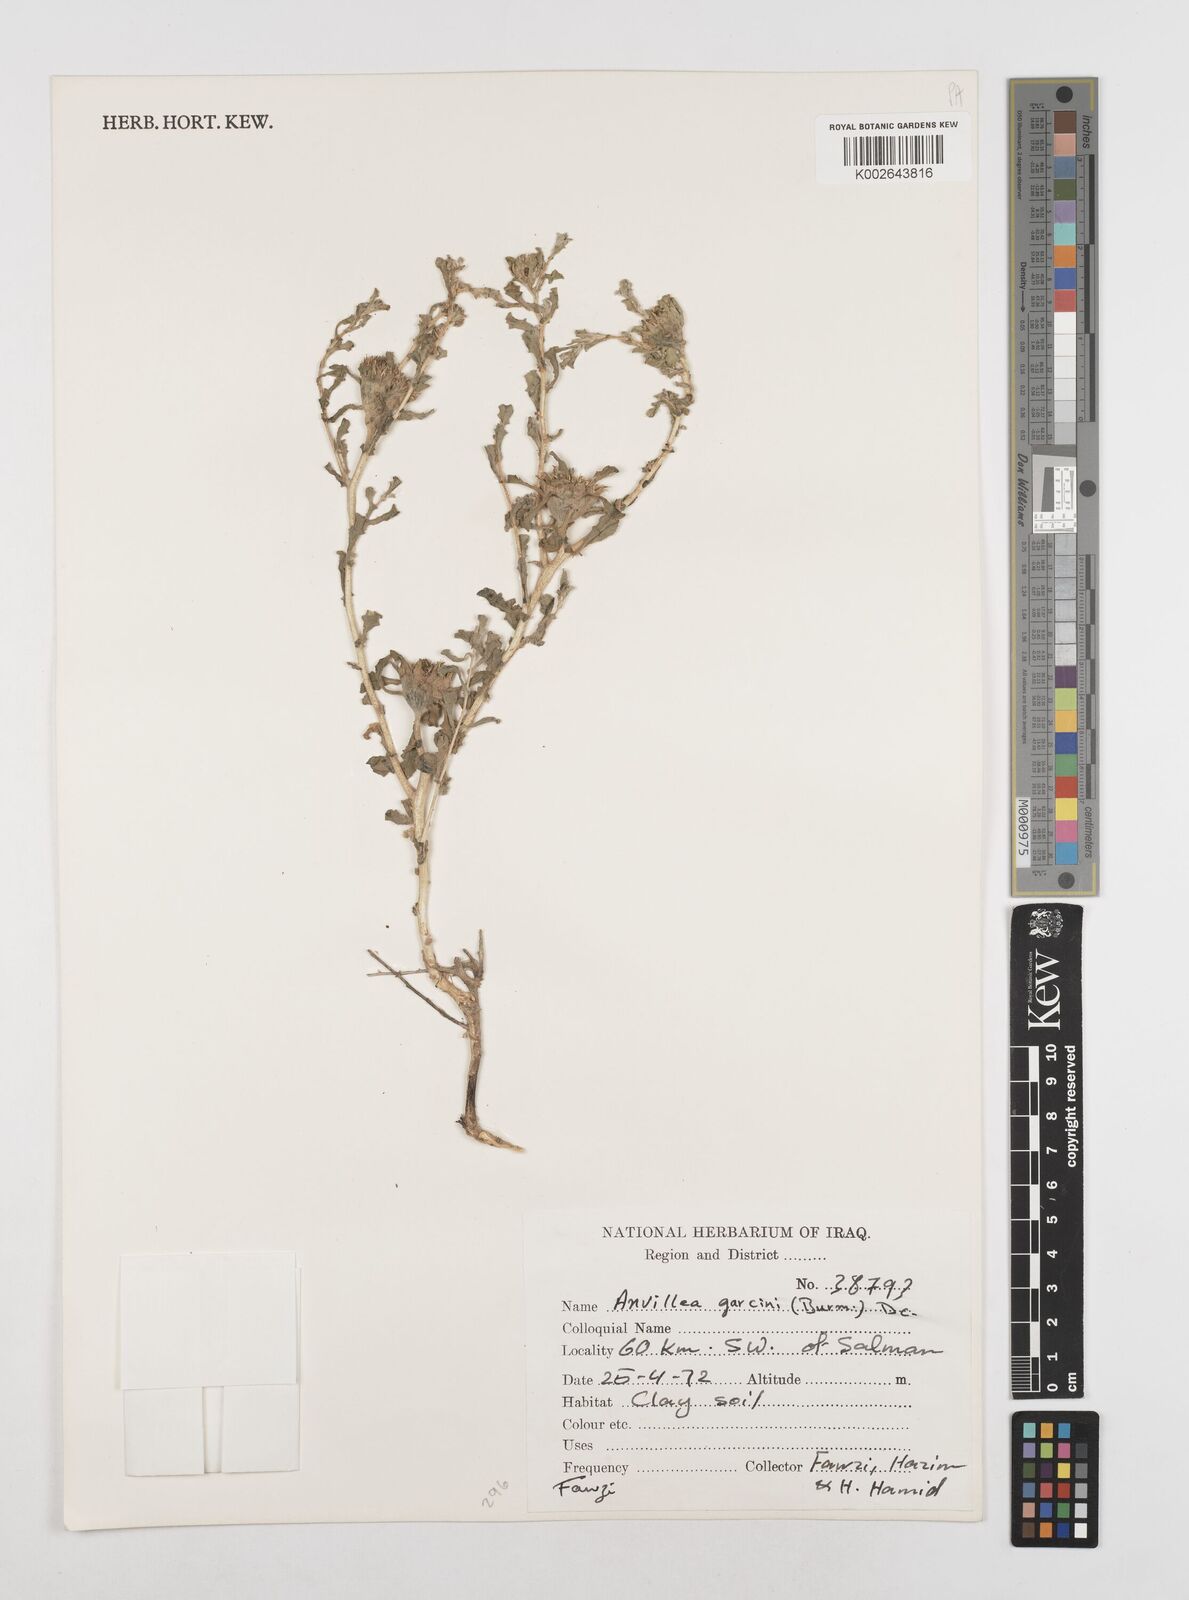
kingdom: Plantae
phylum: Tracheophyta
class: Magnoliopsida
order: Asterales
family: Asteraceae
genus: Anvillea
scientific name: Anvillea garcinii
